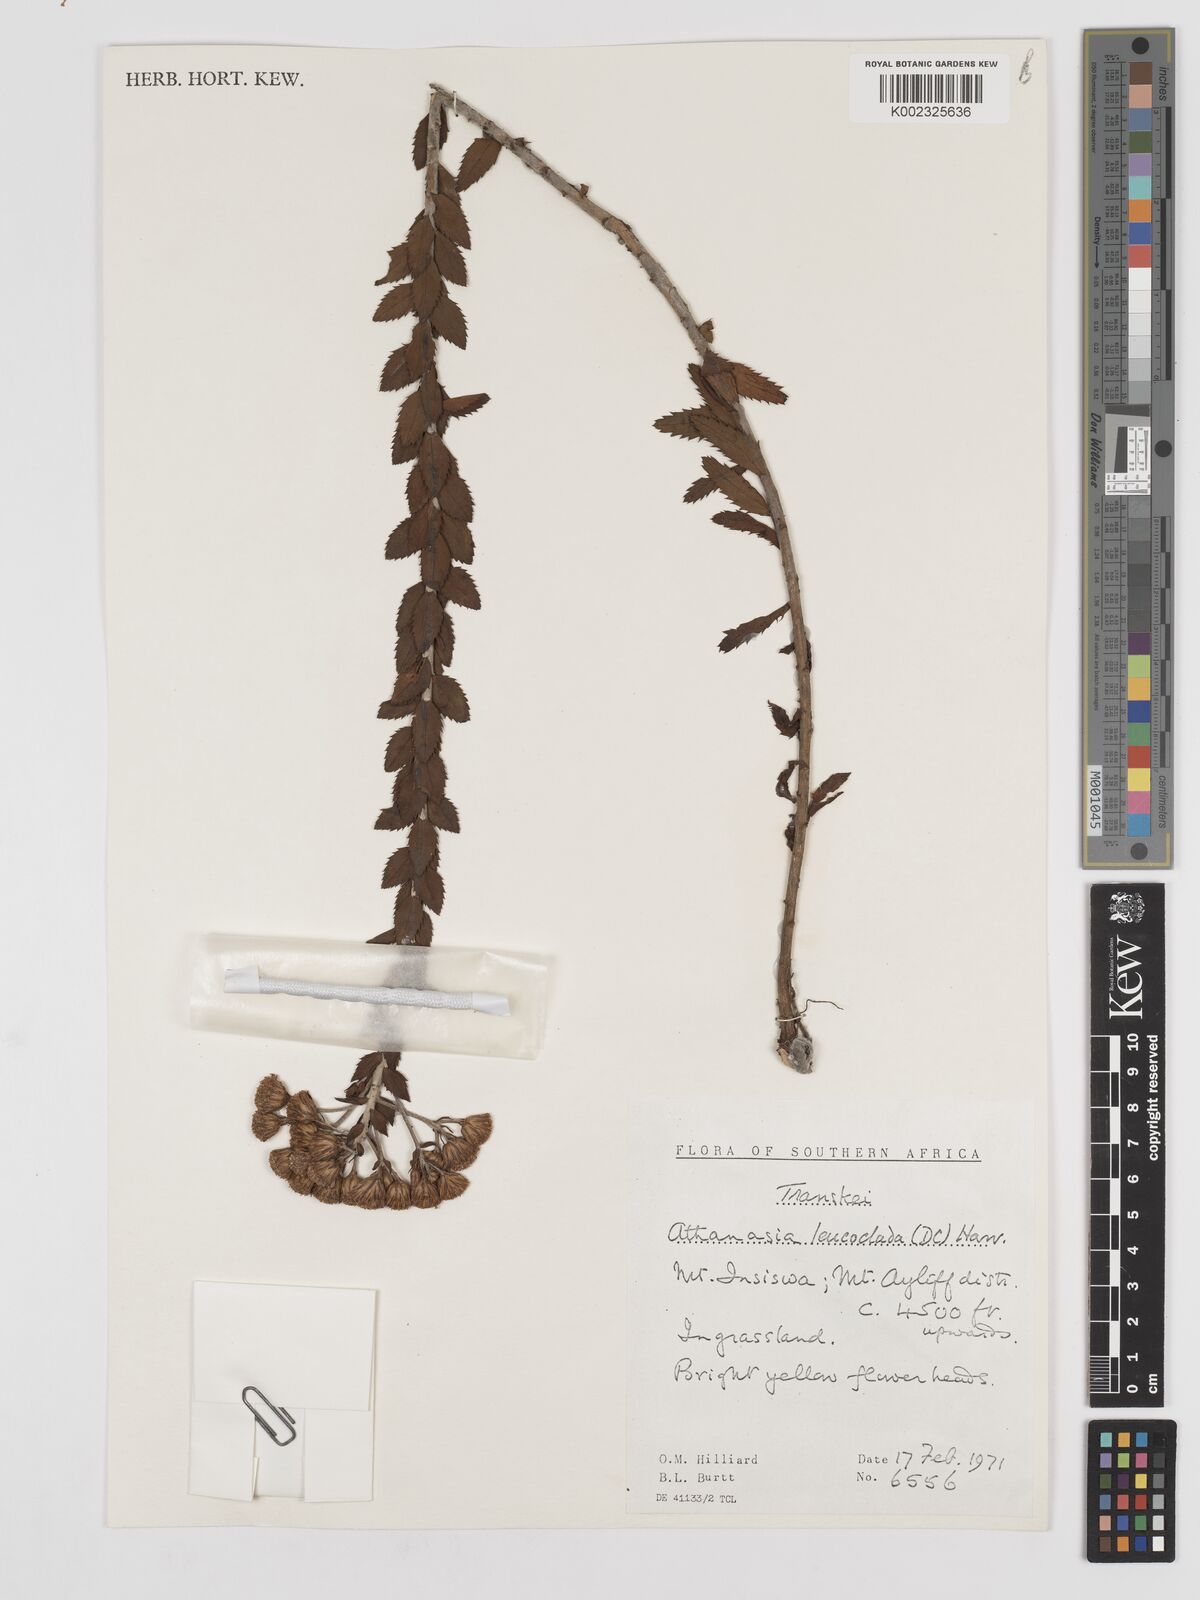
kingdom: Plantae
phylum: Tracheophyta
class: Magnoliopsida
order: Asterales
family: Asteraceae
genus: Inulanthera
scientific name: Inulanthera leucoclada
